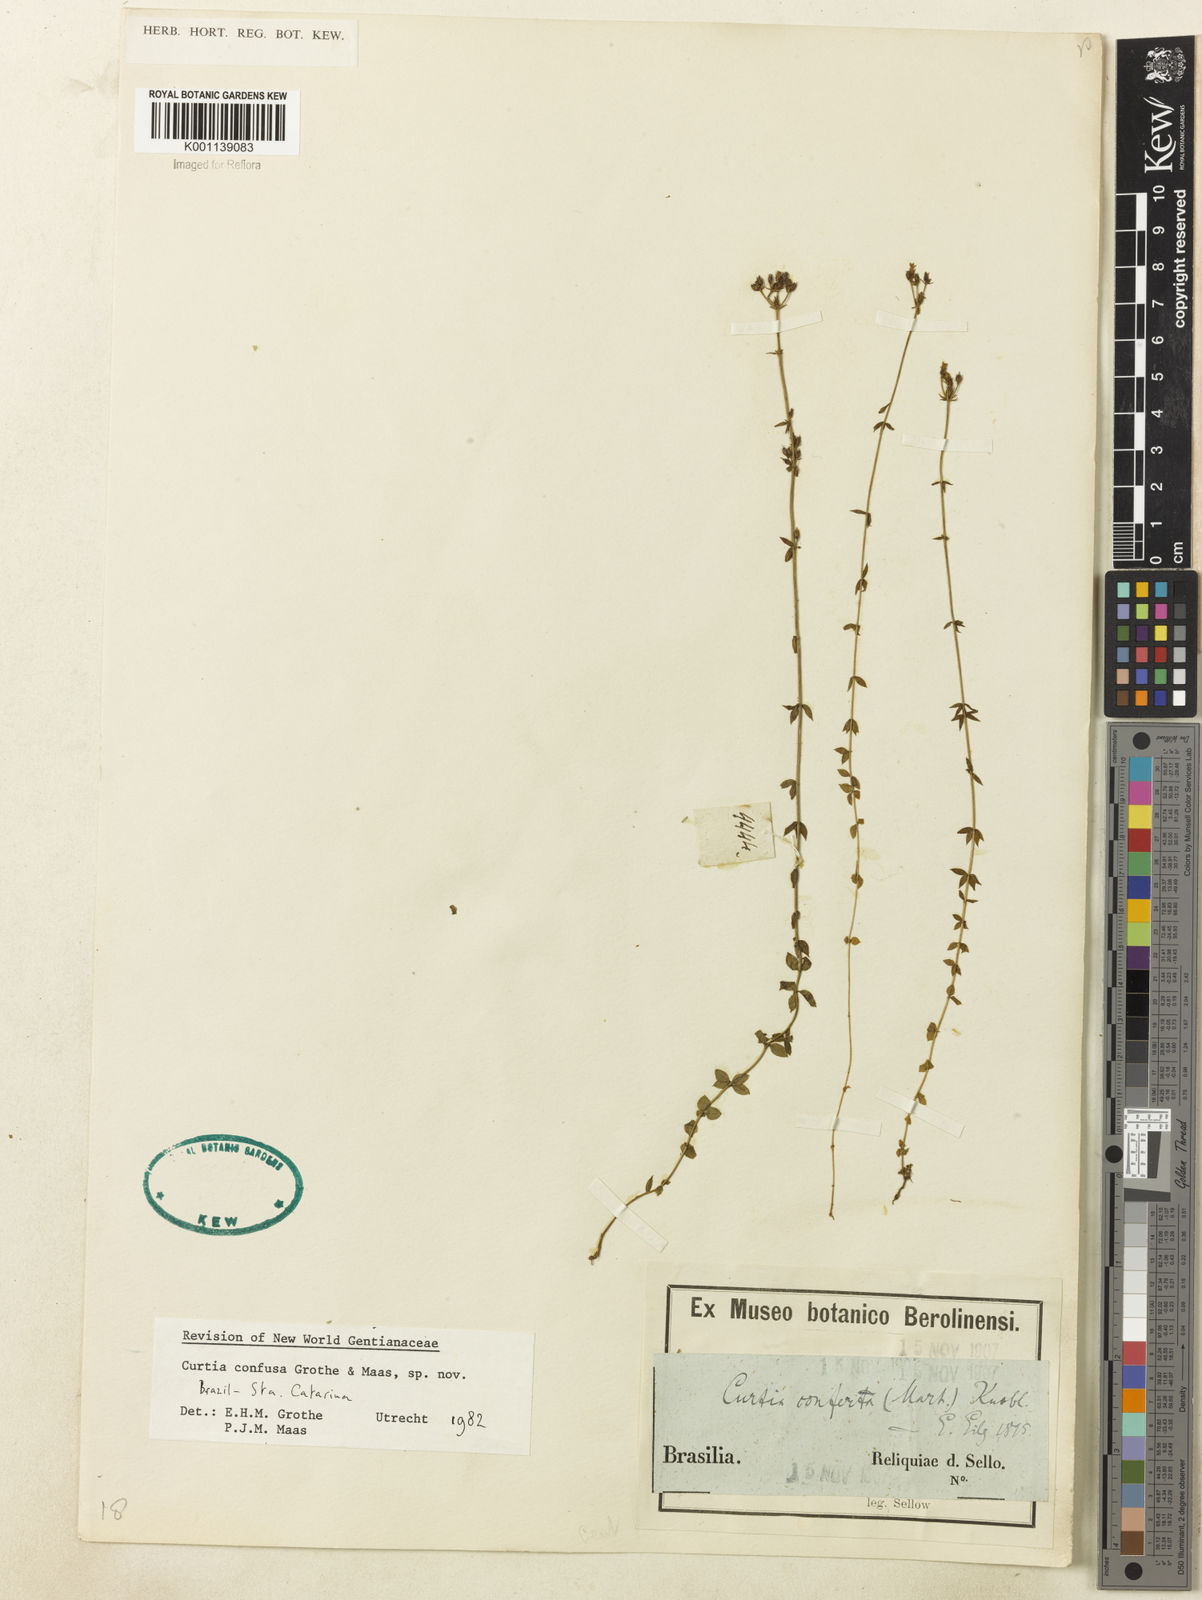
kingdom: Plantae
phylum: Tracheophyta
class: Magnoliopsida
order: Gentianales
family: Gentianaceae
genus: Curtia
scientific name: Curtia conferta
